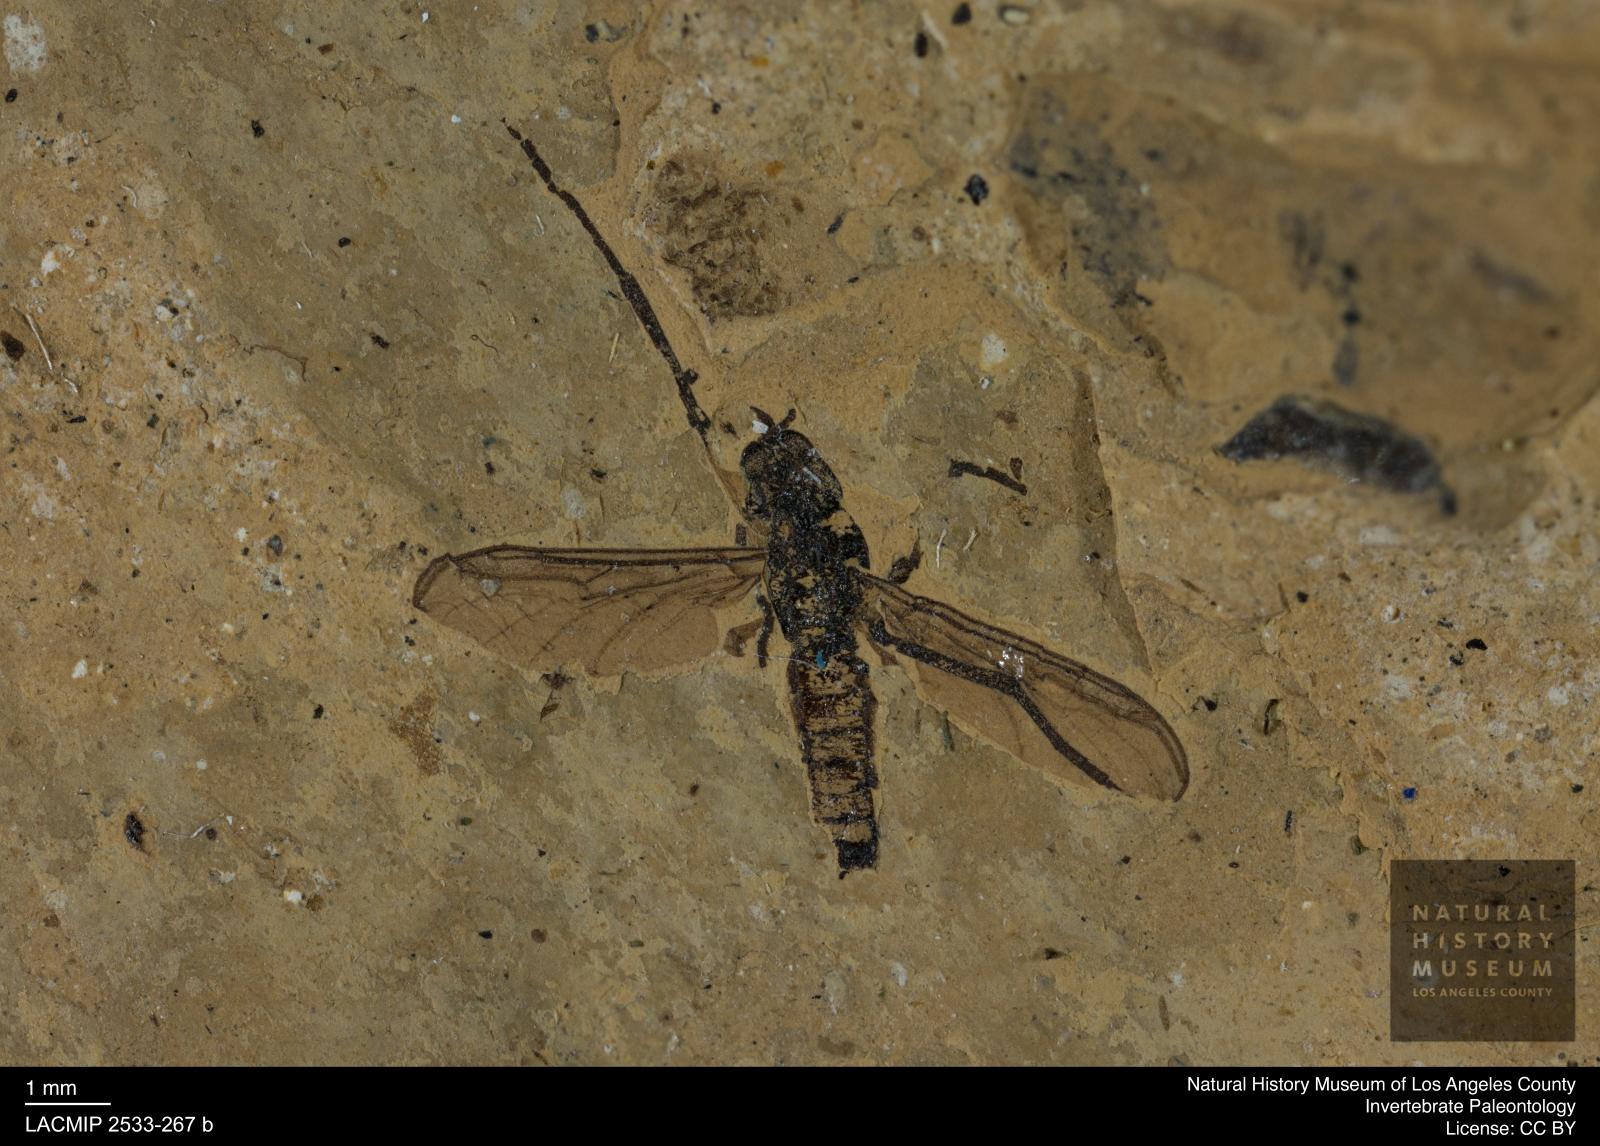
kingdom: Animalia
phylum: Arthropoda
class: Insecta
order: Diptera
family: Bibionidae
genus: Plecia
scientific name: Plecia
